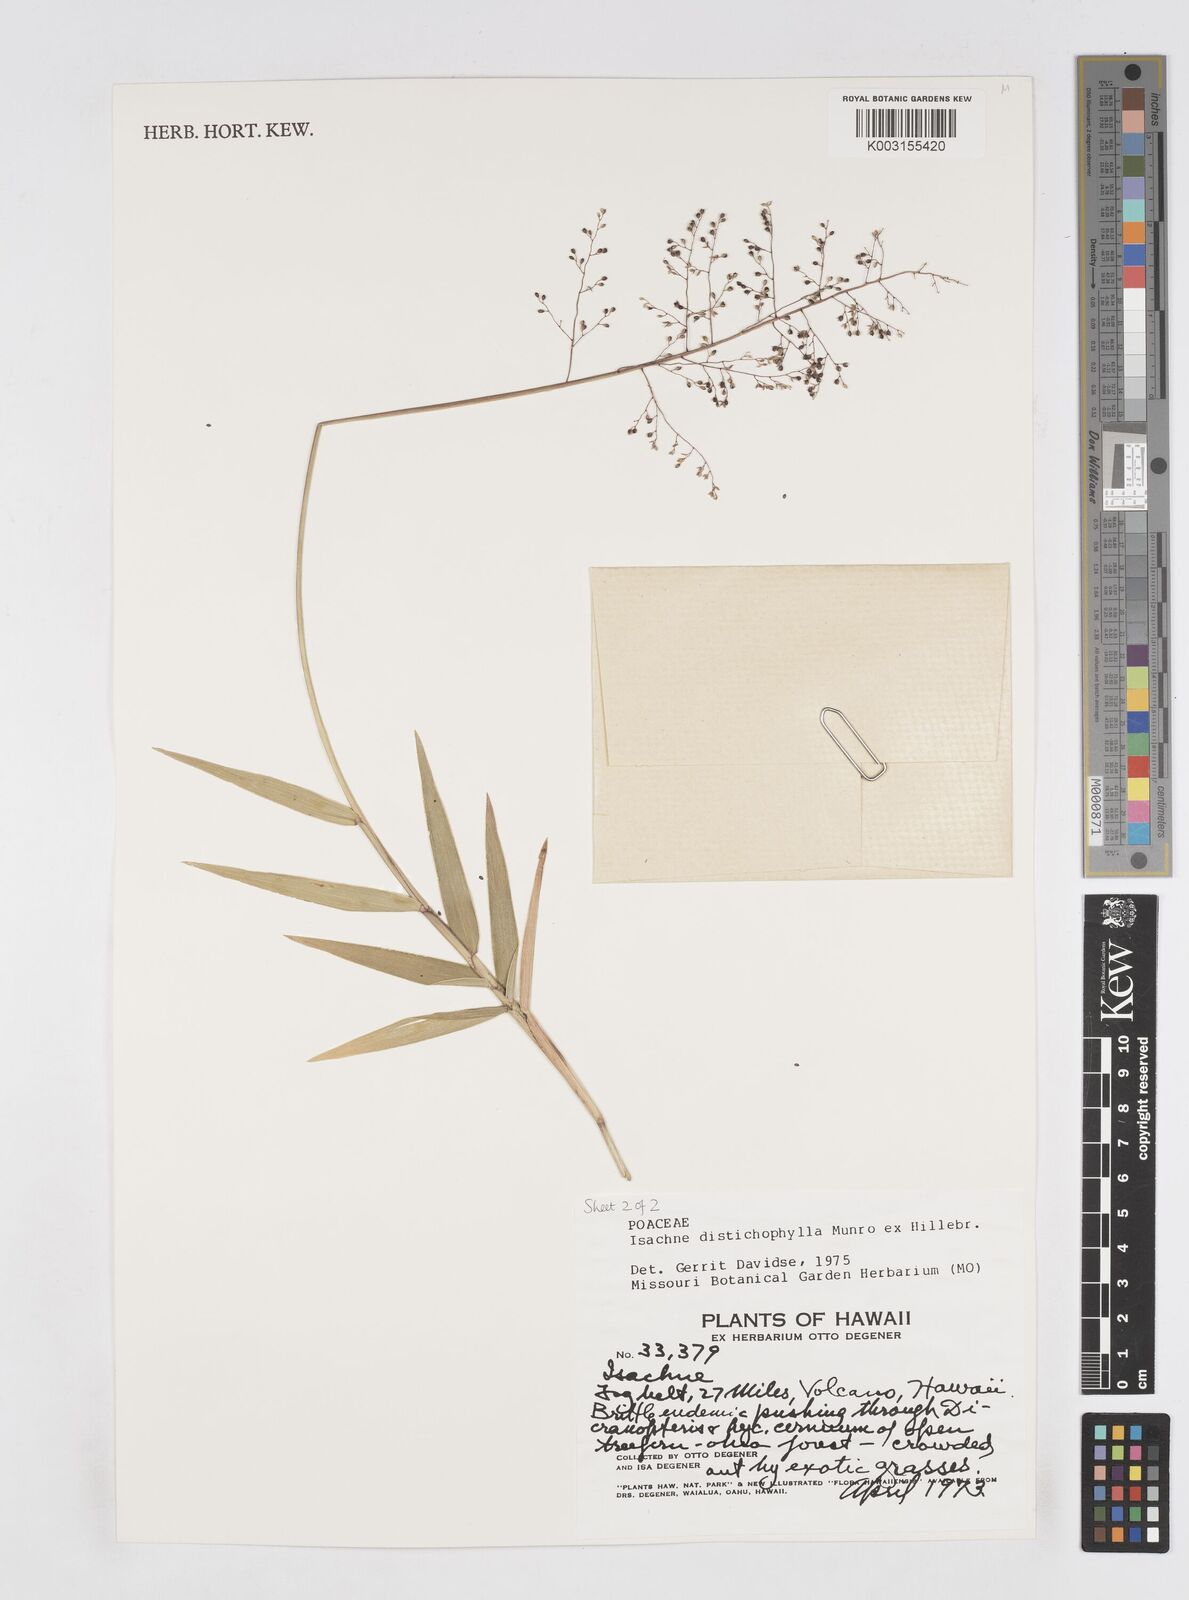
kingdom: Plantae
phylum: Tracheophyta
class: Liliopsida
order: Poales
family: Poaceae
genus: Isachne
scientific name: Isachne distichophylla
